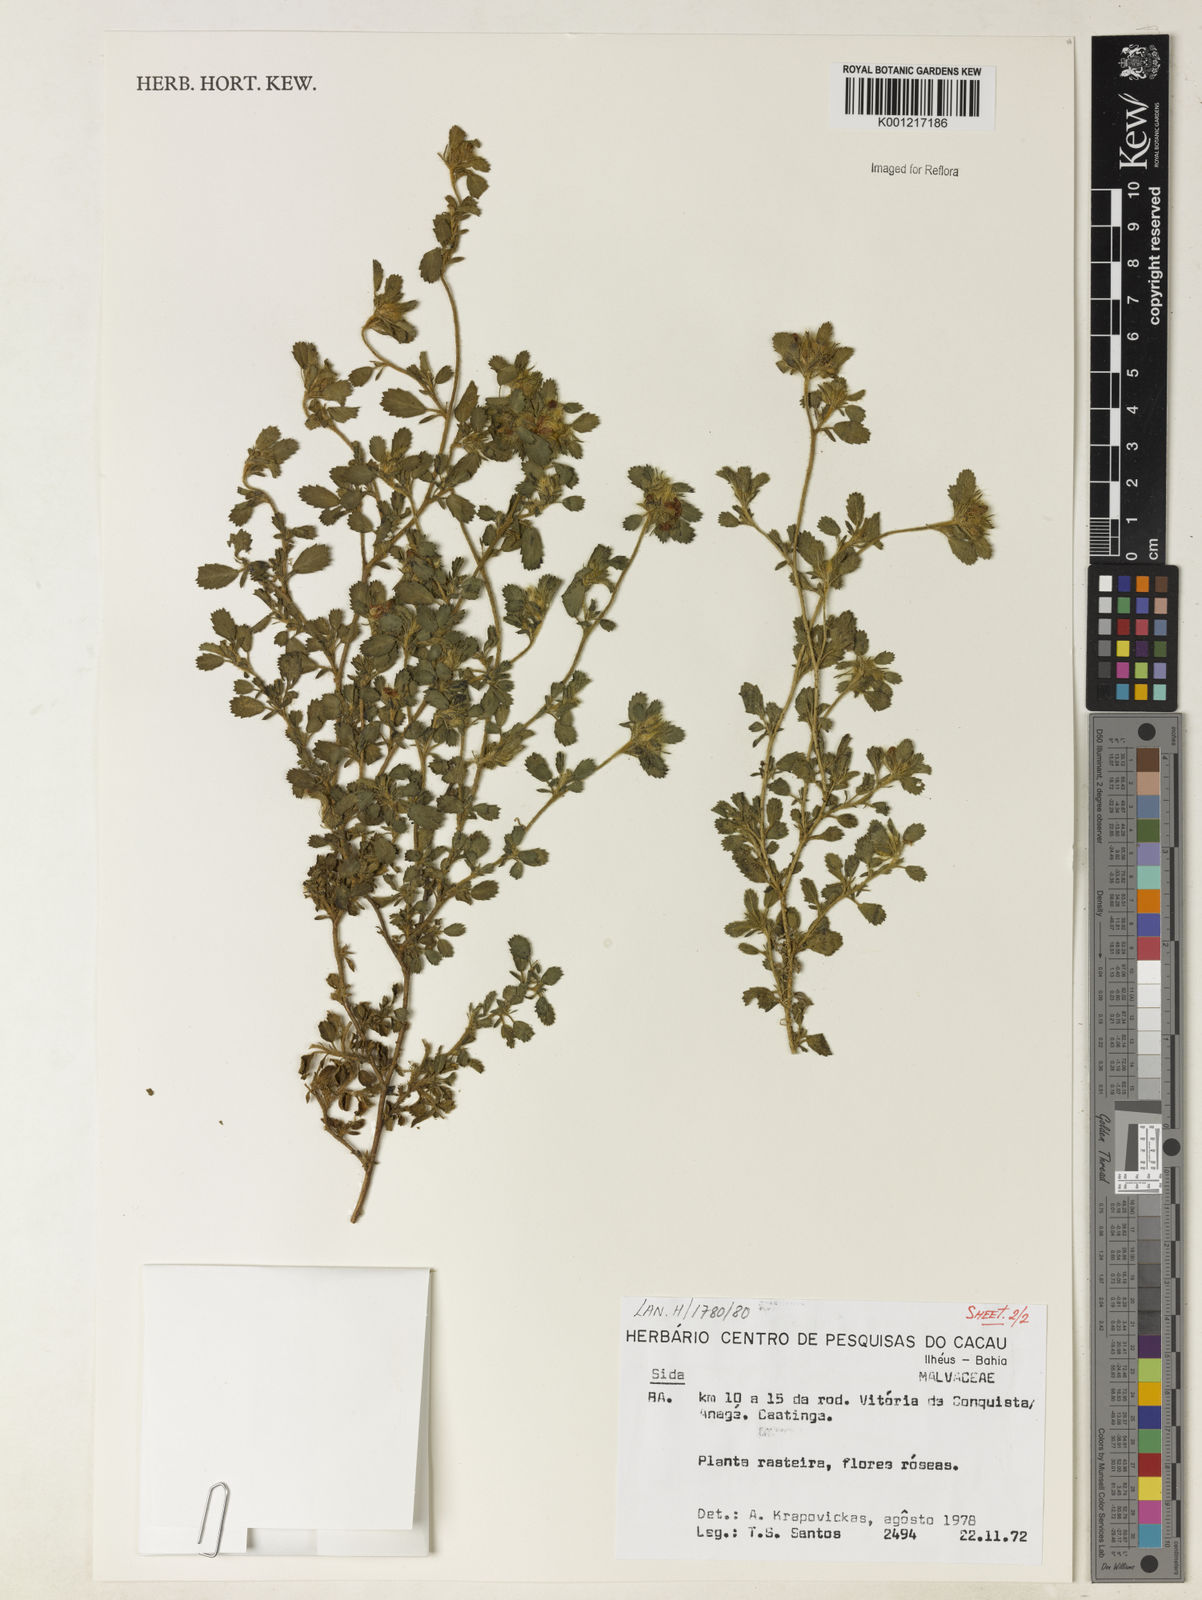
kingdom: Plantae
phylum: Tracheophyta
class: Magnoliopsida
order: Malvales
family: Malvaceae
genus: Sida
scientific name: Sida
